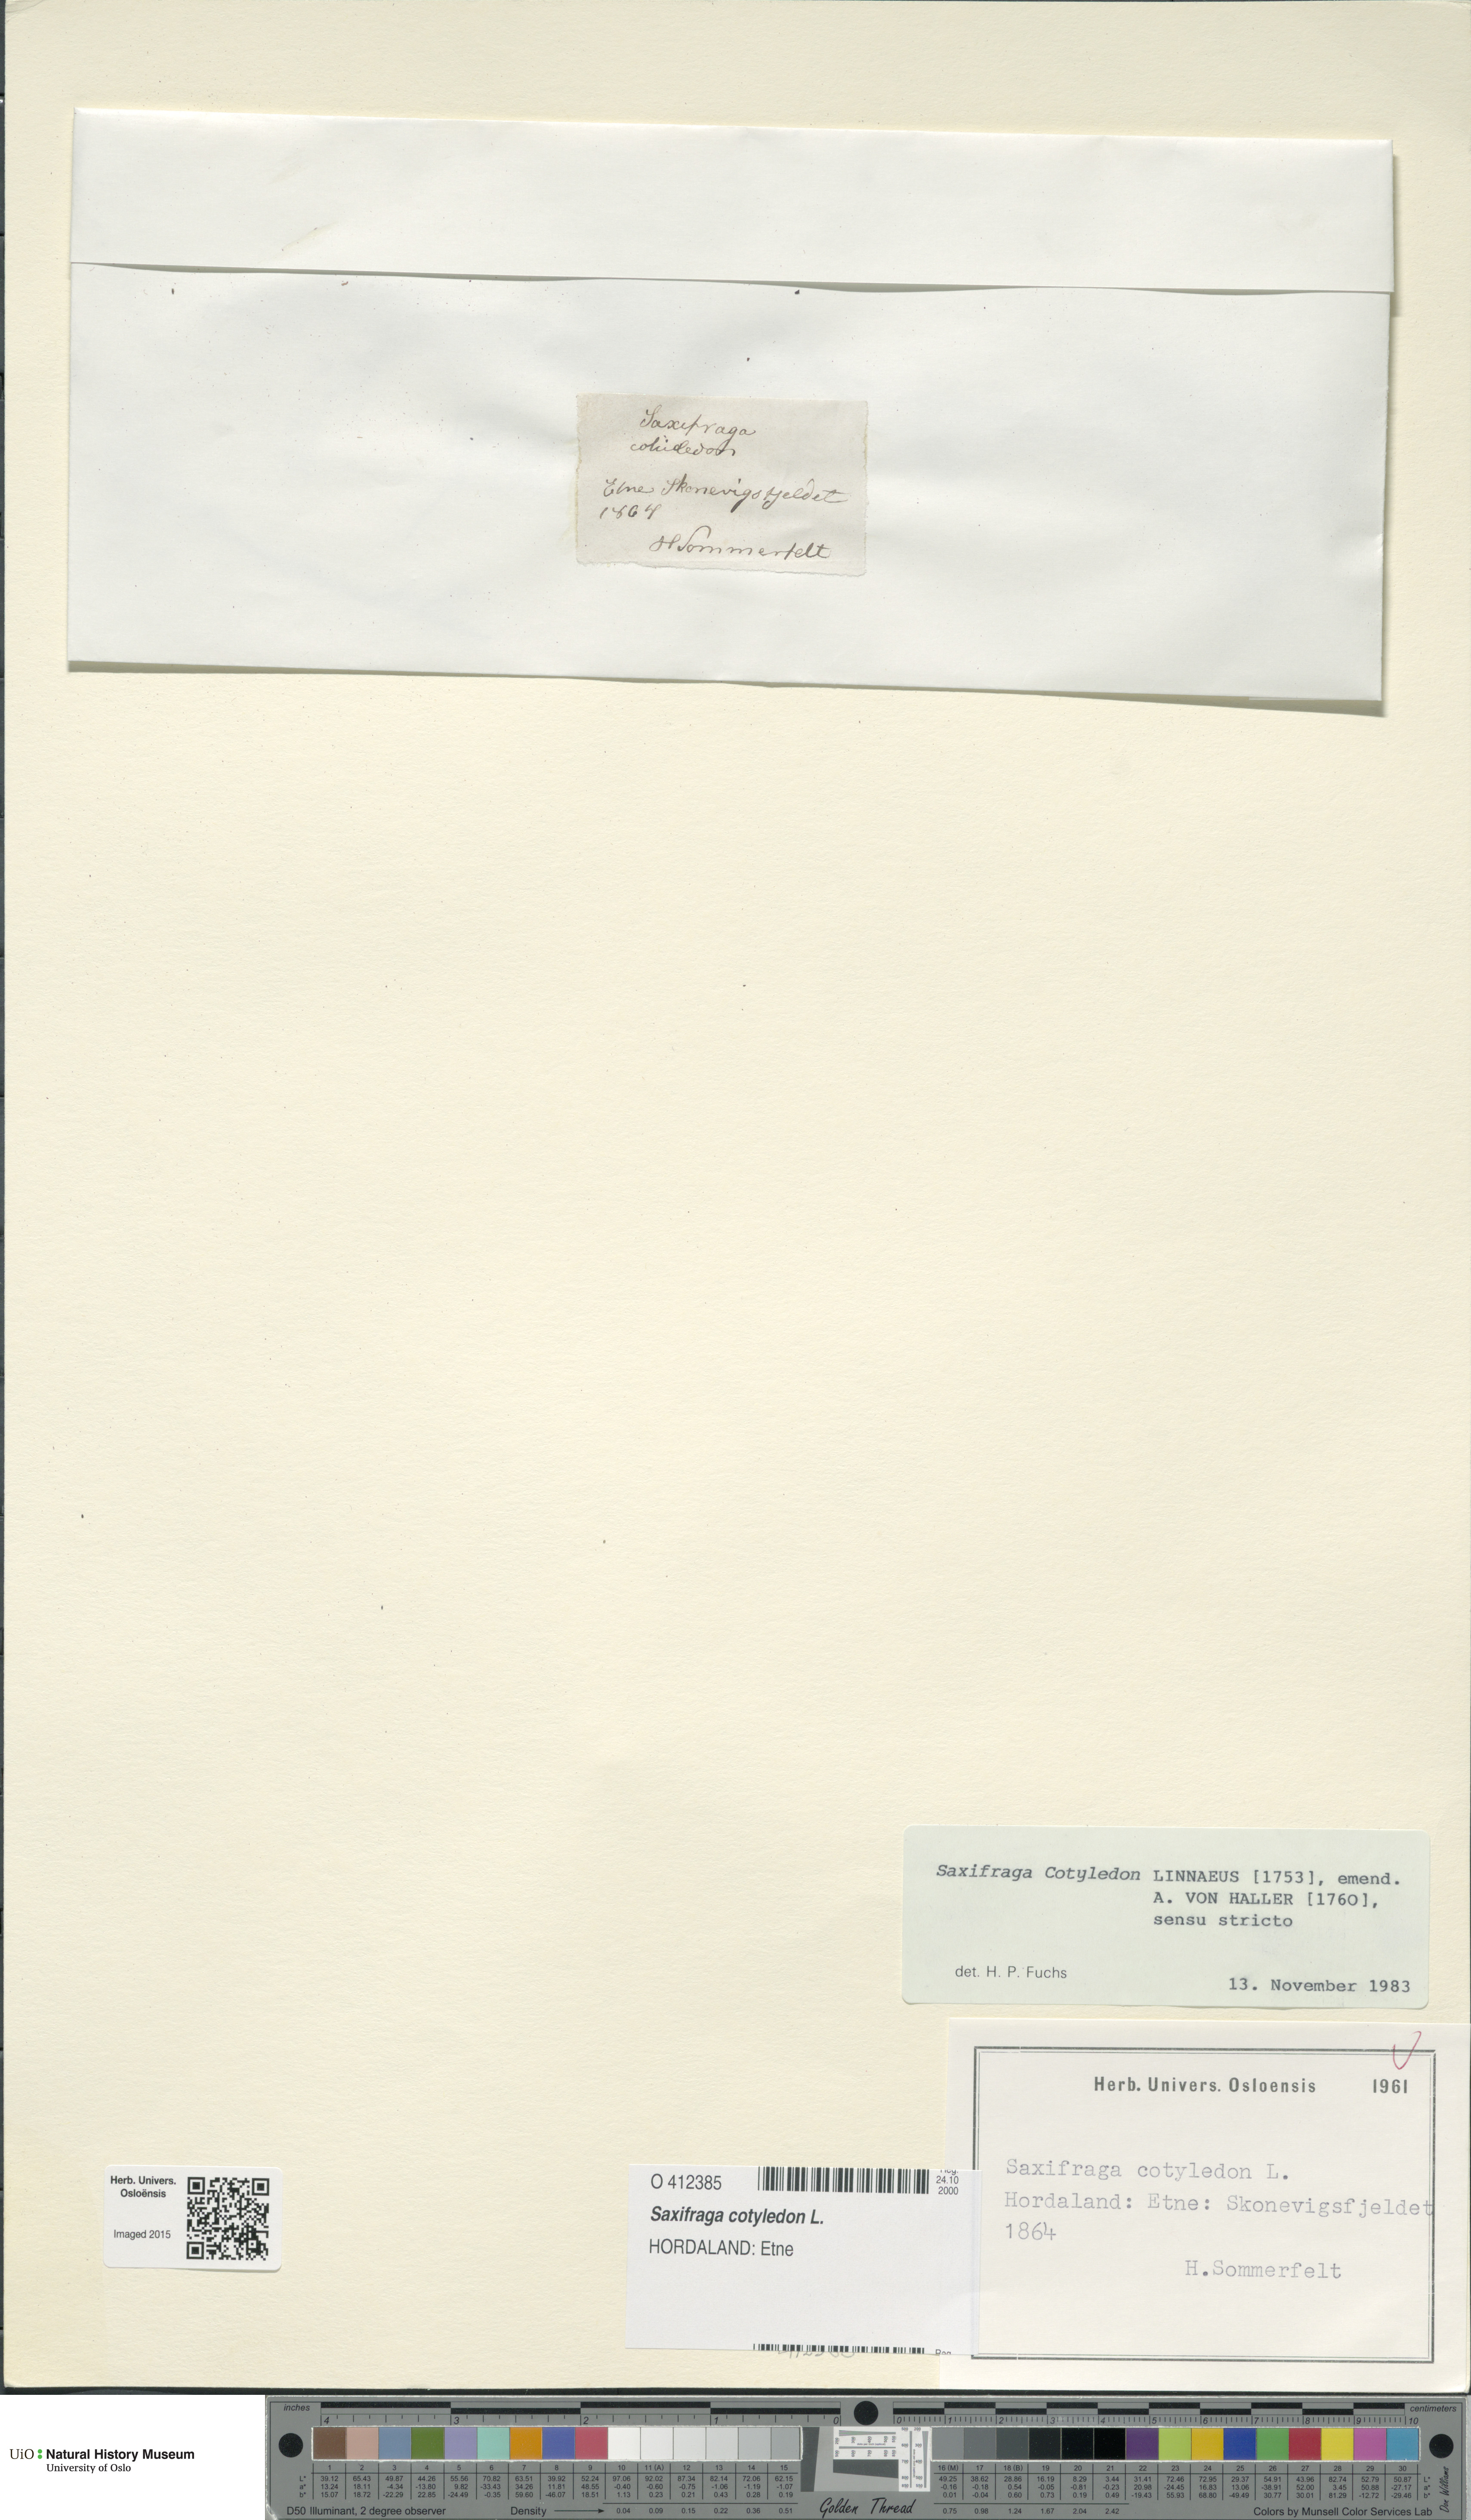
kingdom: Plantae
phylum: Tracheophyta
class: Magnoliopsida
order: Saxifragales
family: Saxifragaceae
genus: Saxifraga
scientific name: Saxifraga cotyledon
